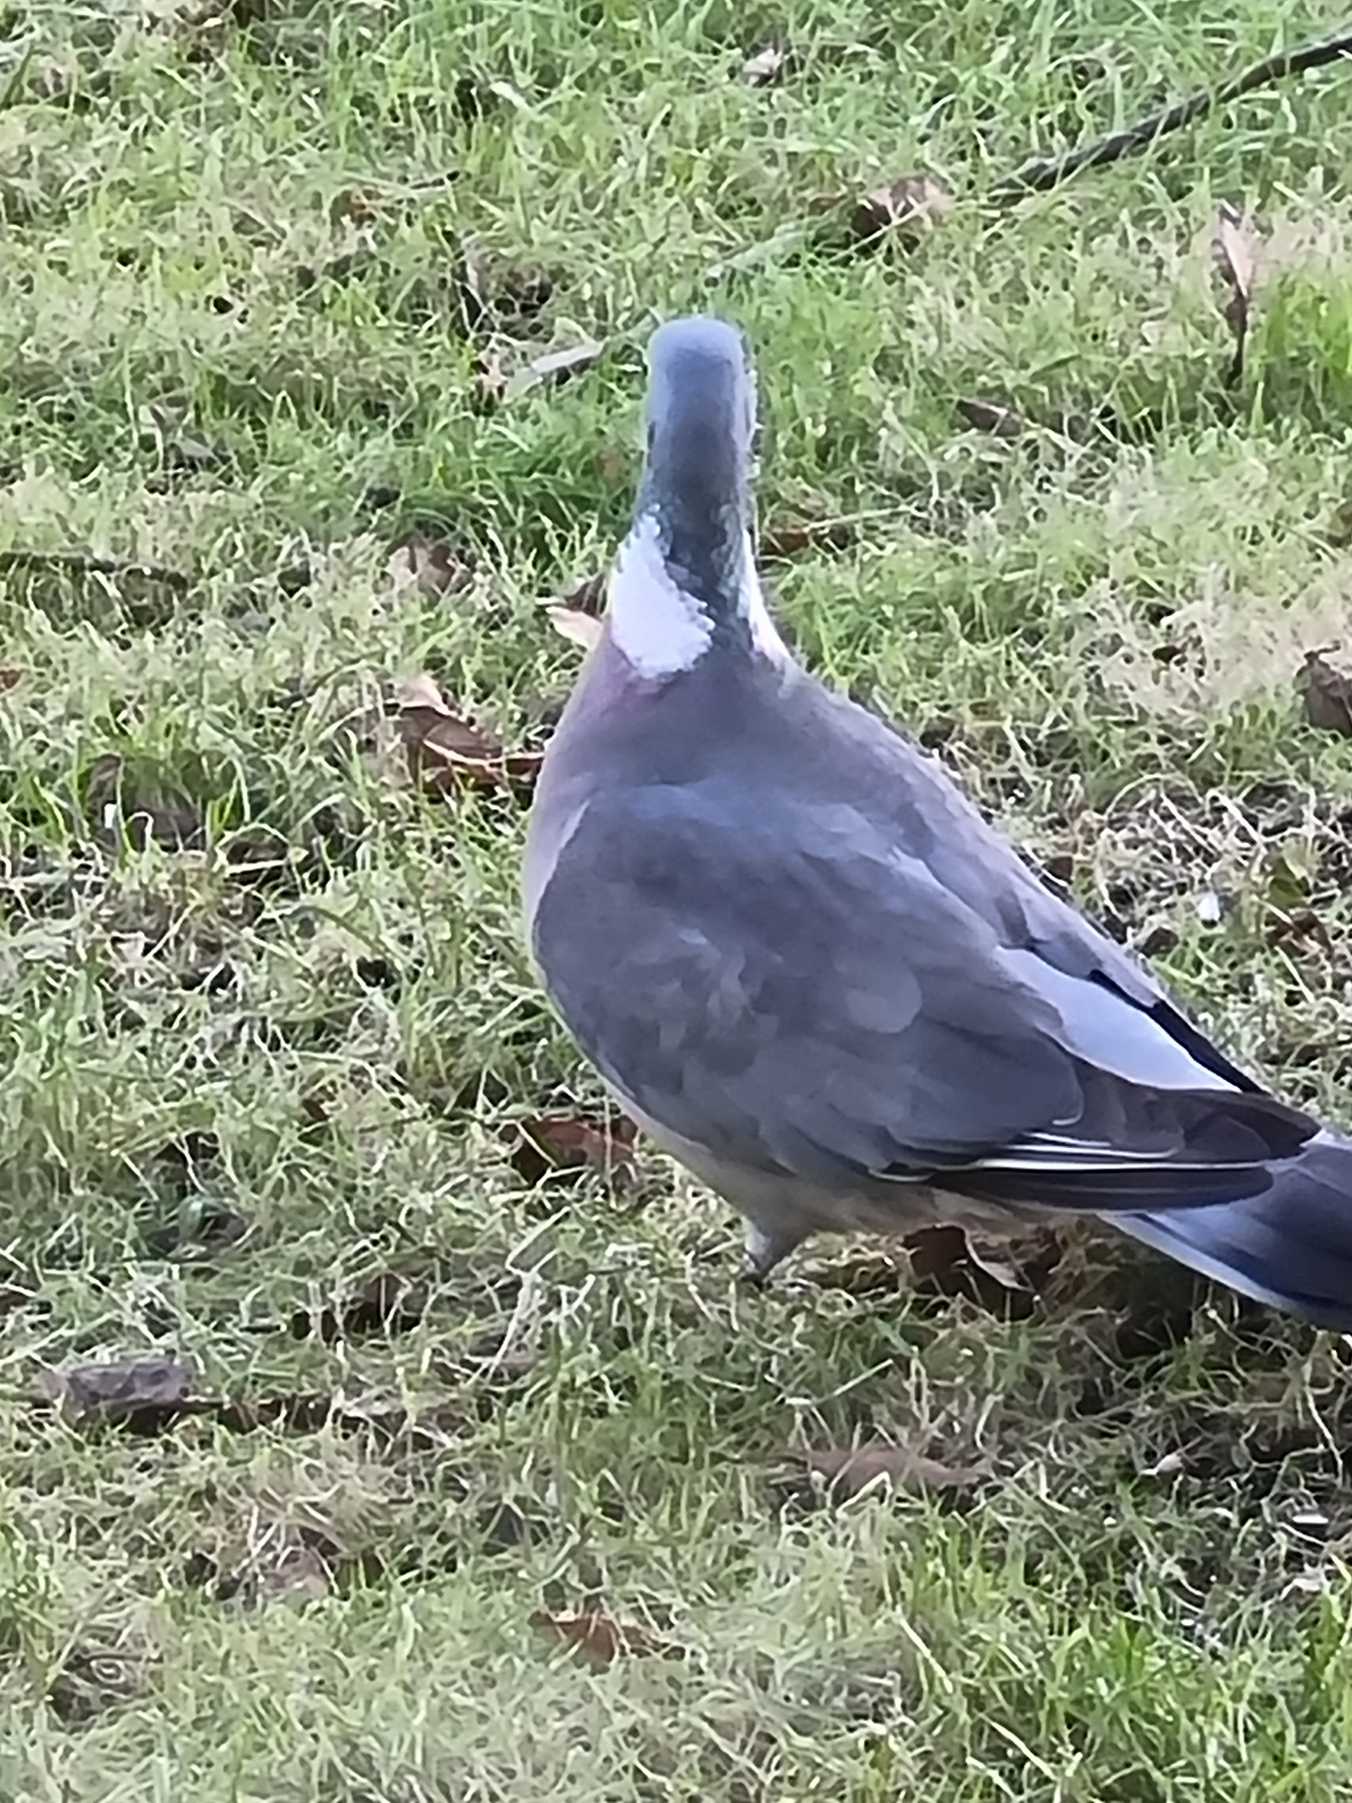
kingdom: Animalia
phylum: Chordata
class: Aves
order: Columbiformes
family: Columbidae
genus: Columba
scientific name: Columba palumbus
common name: Ringdue
